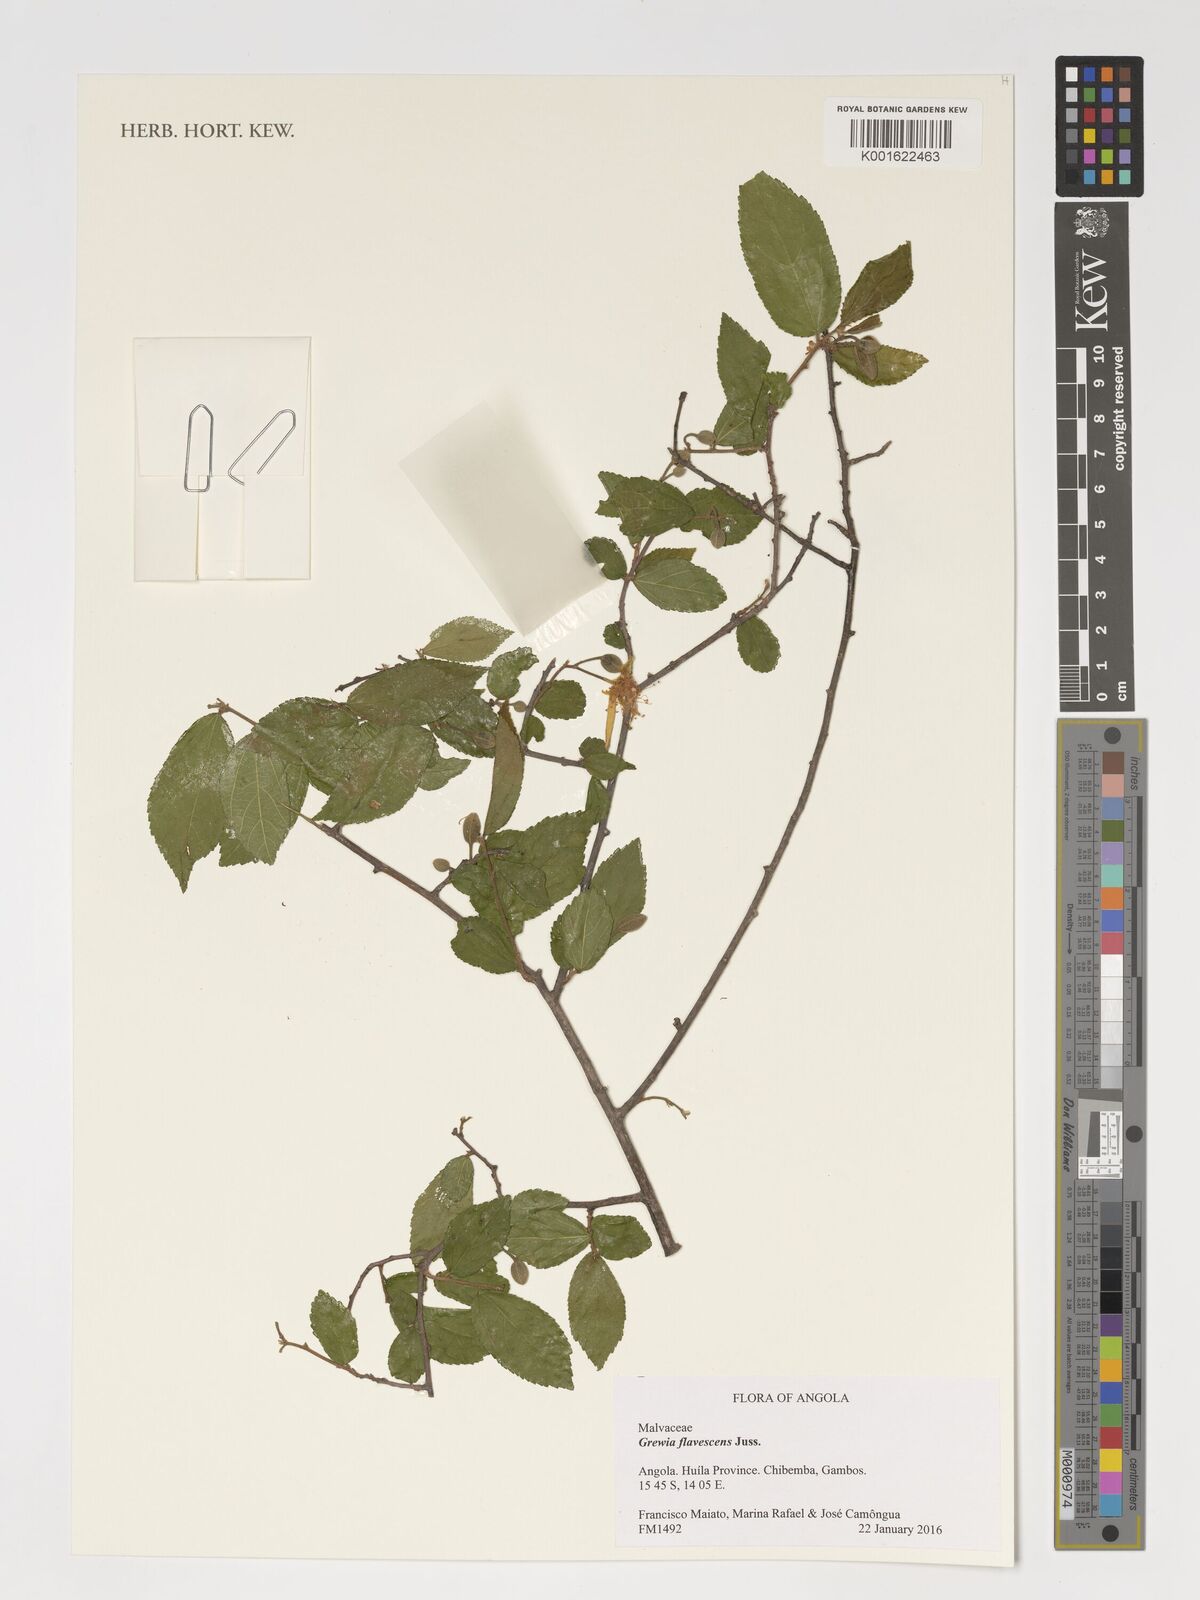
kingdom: Plantae
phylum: Tracheophyta
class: Magnoliopsida
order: Malvales
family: Malvaceae
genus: Grewia
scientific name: Grewia flavescens
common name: Sandpaper raisin
